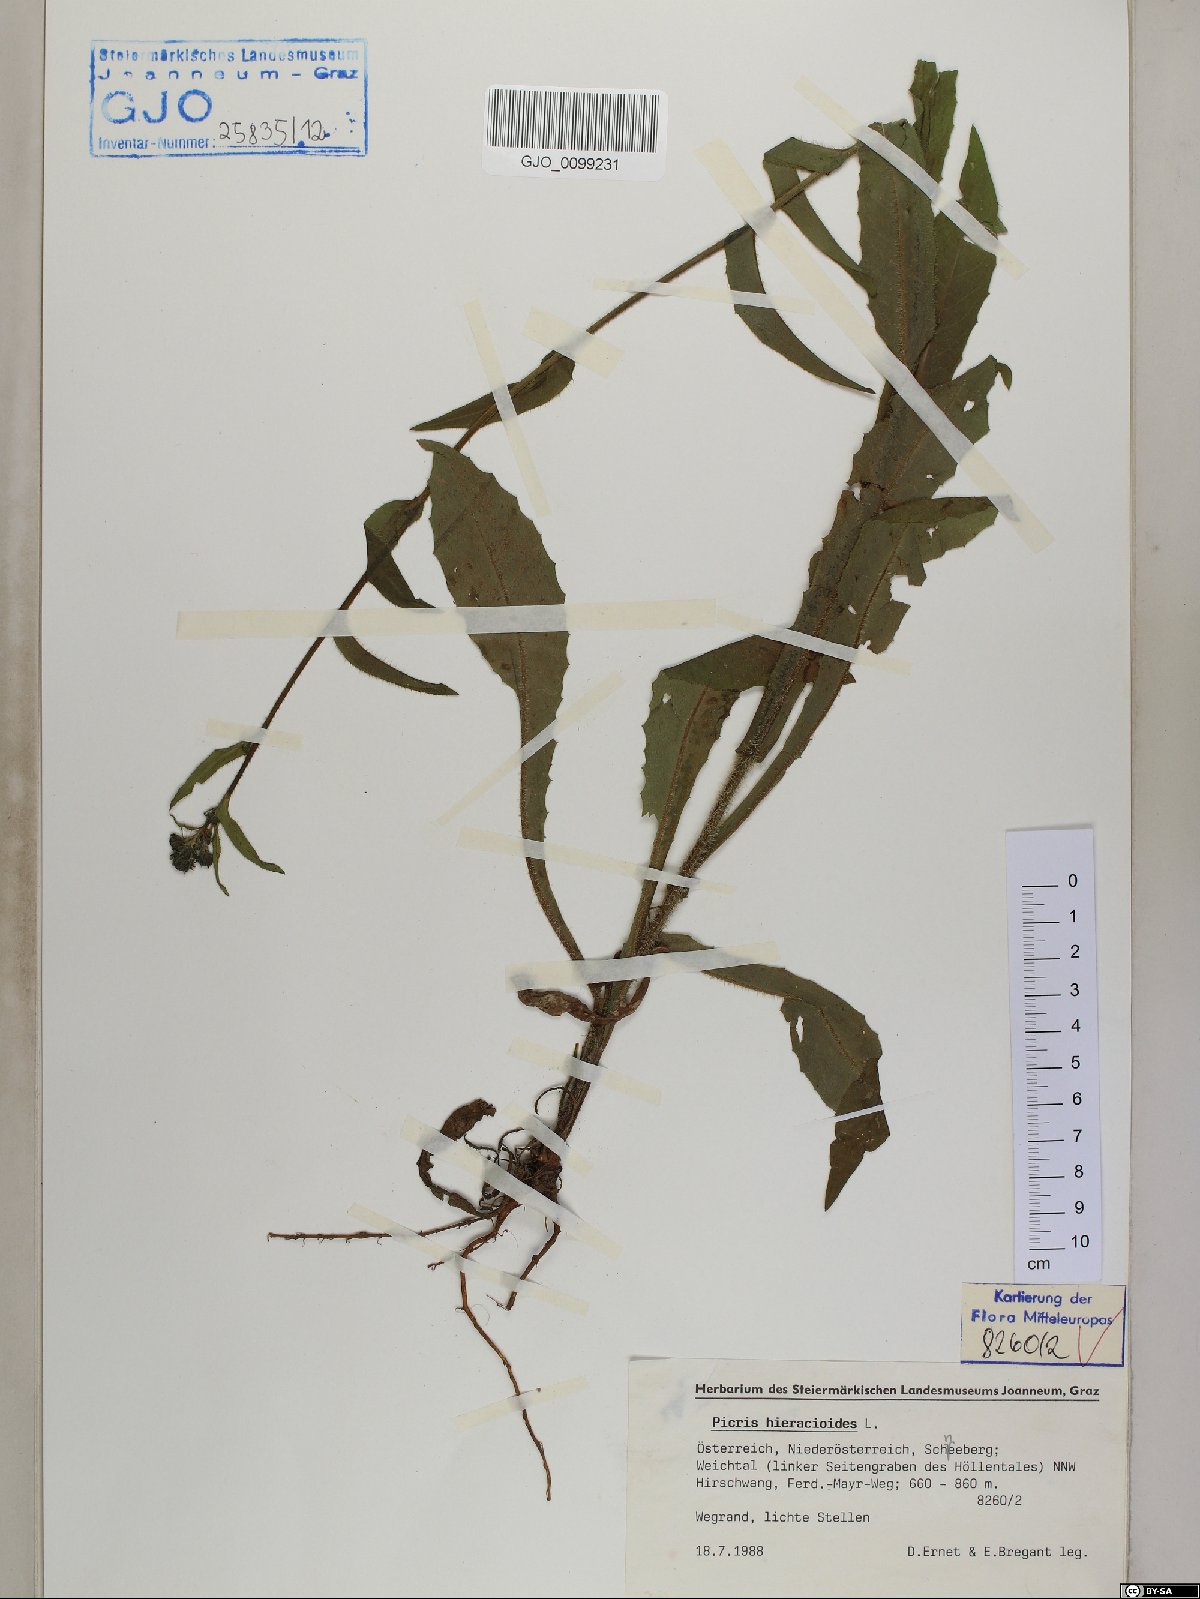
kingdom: Plantae
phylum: Tracheophyta
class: Magnoliopsida
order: Asterales
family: Asteraceae
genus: Picris
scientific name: Picris hieracioides
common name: Hawkweed oxtongue
